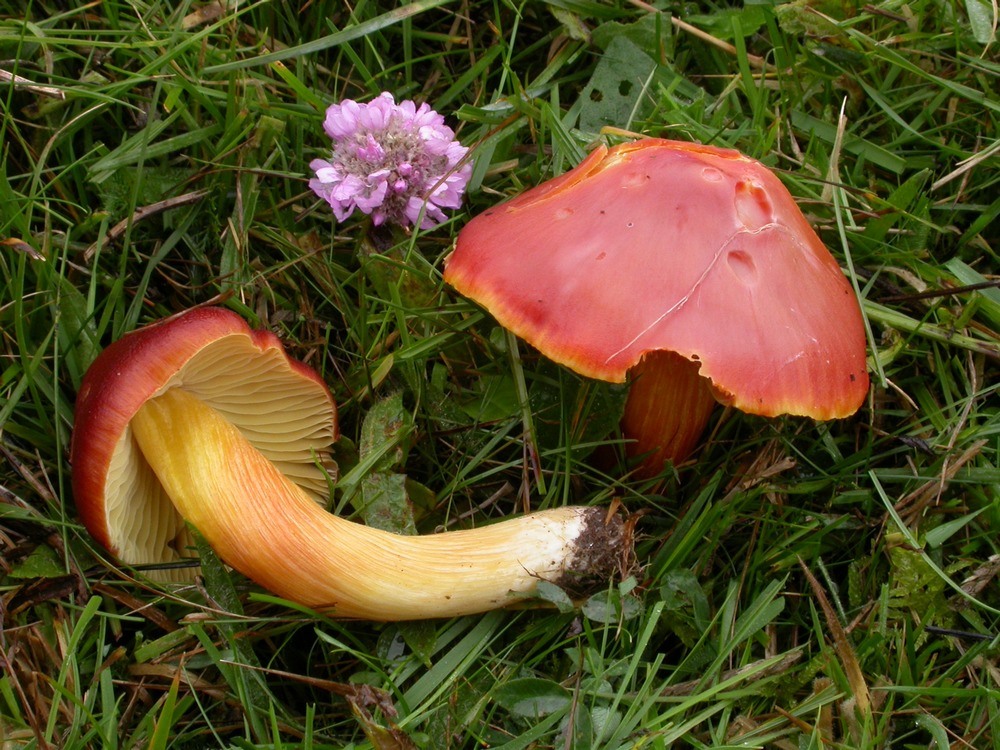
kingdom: Fungi
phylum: Basidiomycota
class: Agaricomycetes
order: Agaricales
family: Hygrophoraceae
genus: Hygrocybe
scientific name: Hygrocybe punicea
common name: skarlagen-vokshat
